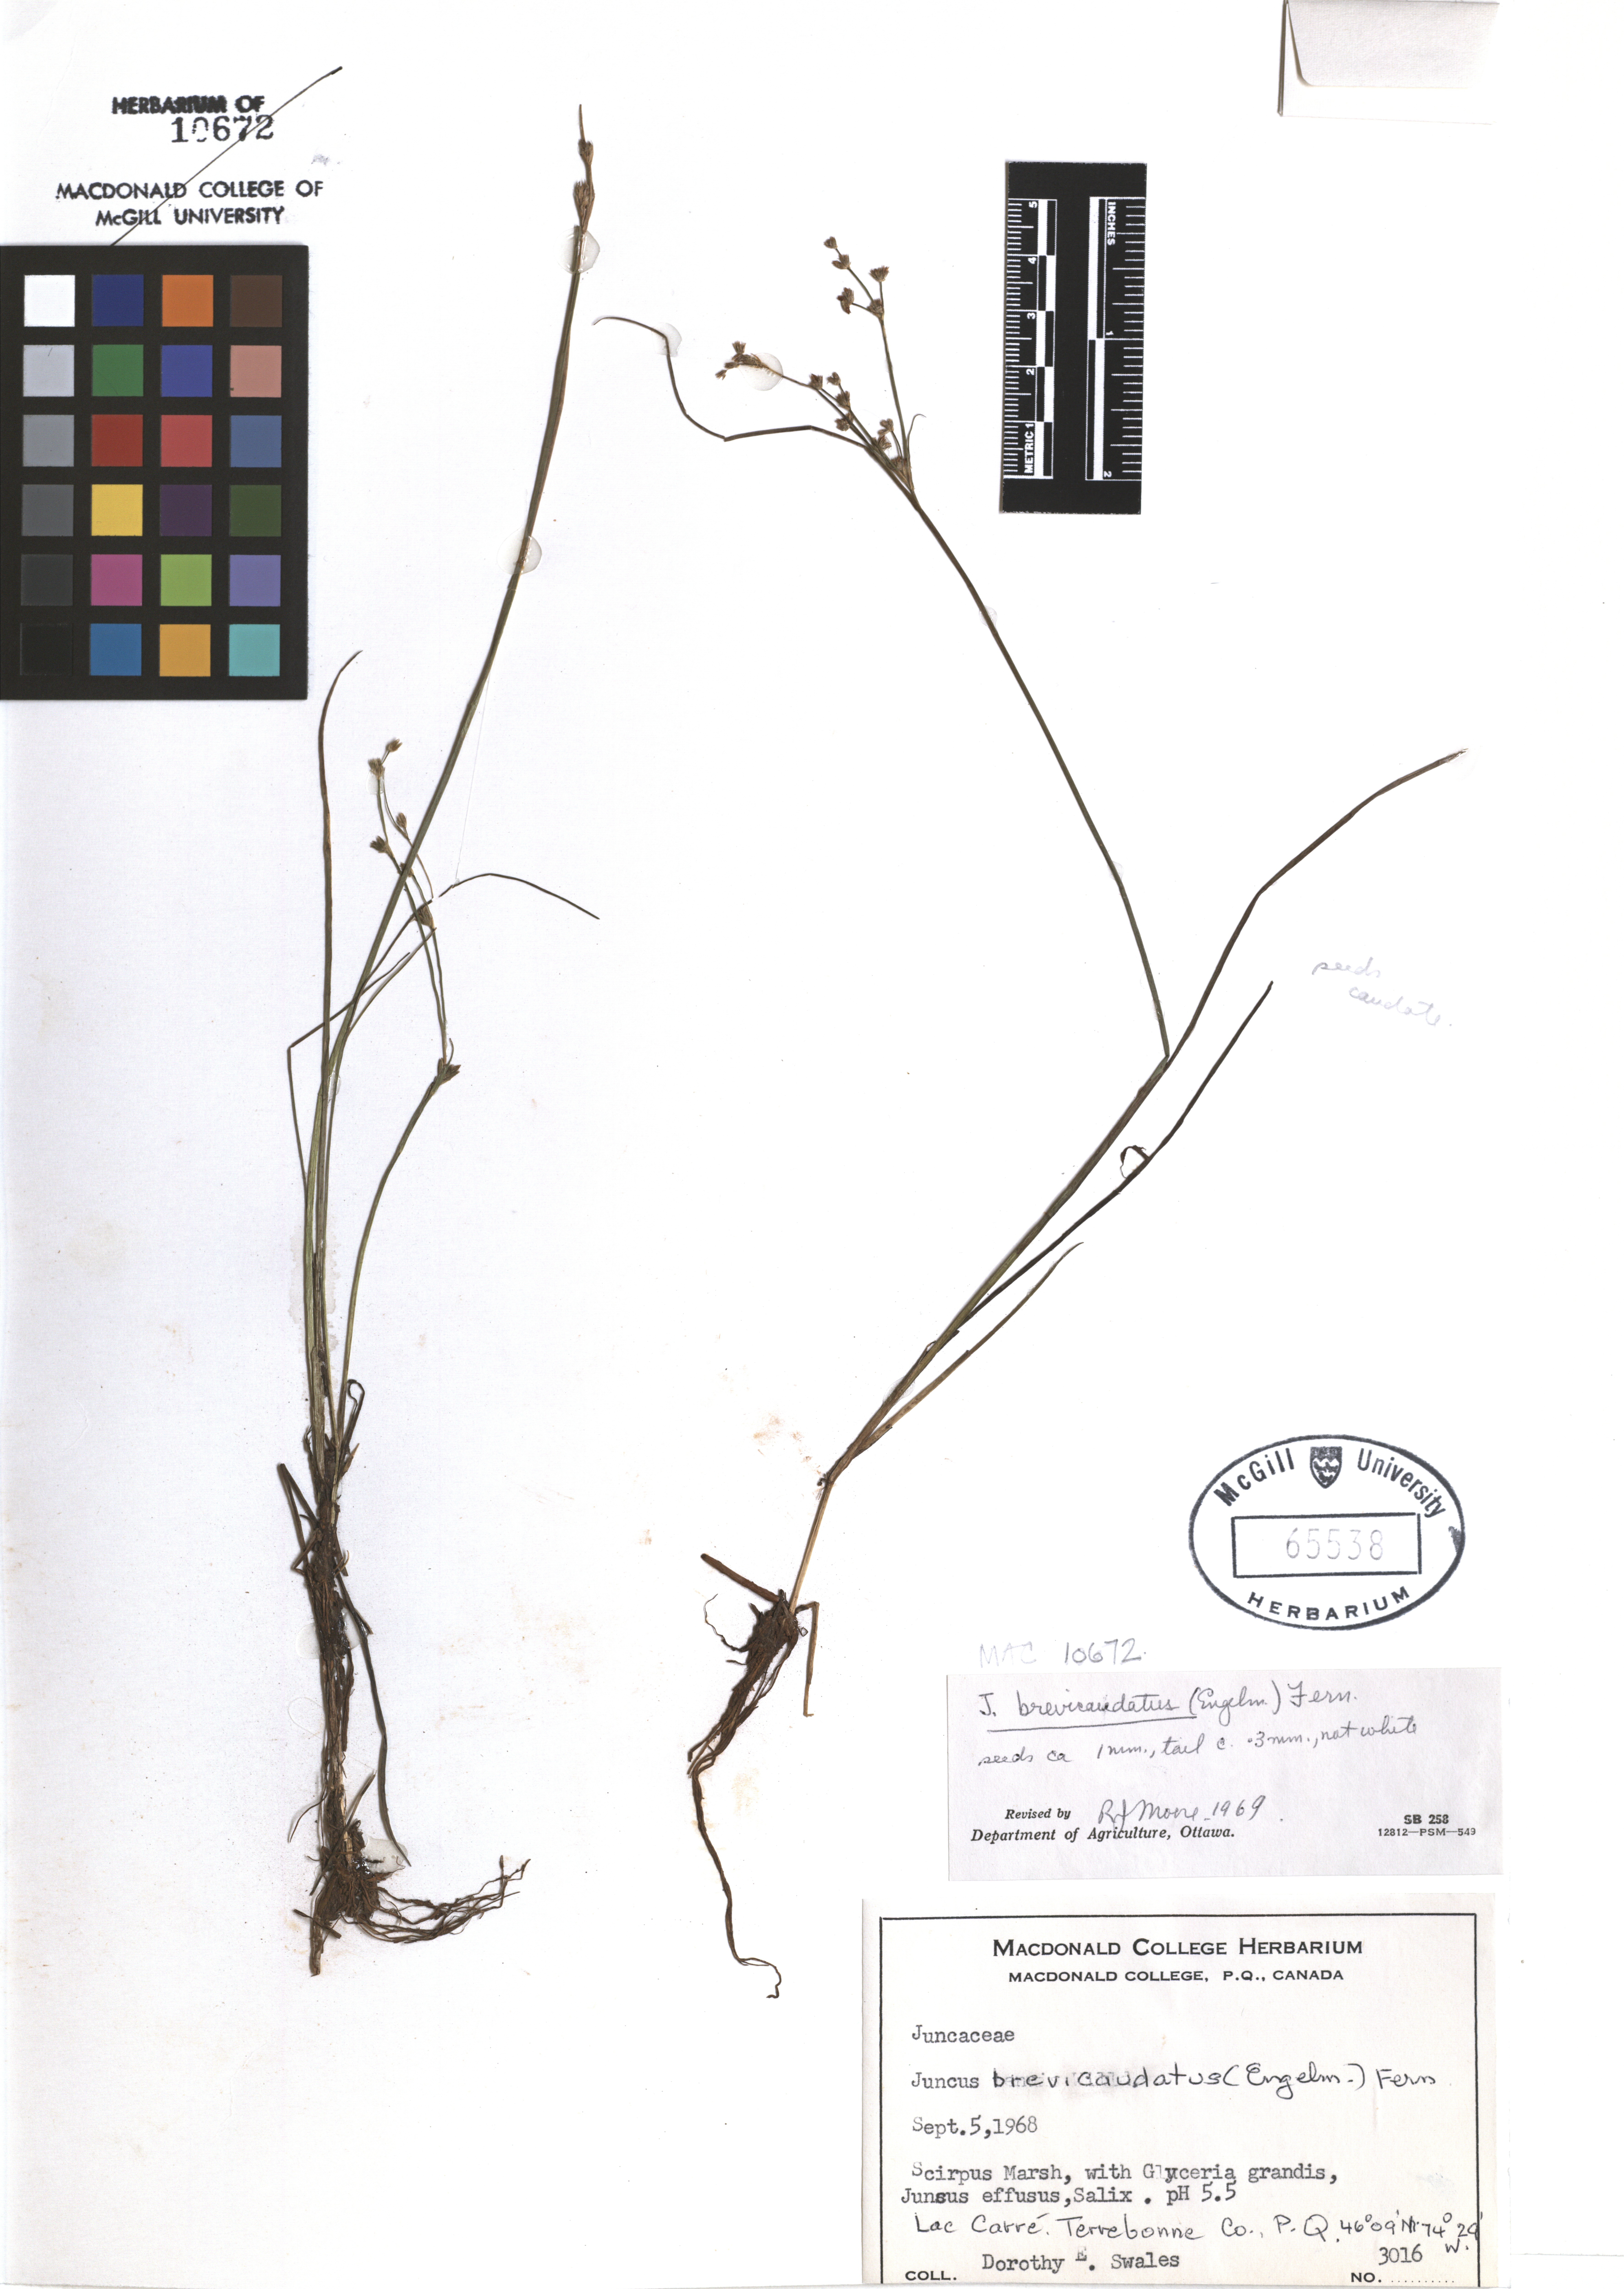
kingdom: Plantae
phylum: Tracheophyta
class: Liliopsida
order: Poales
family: Juncaceae
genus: Juncus
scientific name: Juncus brevicaudatus
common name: Narrow-panicle rush
